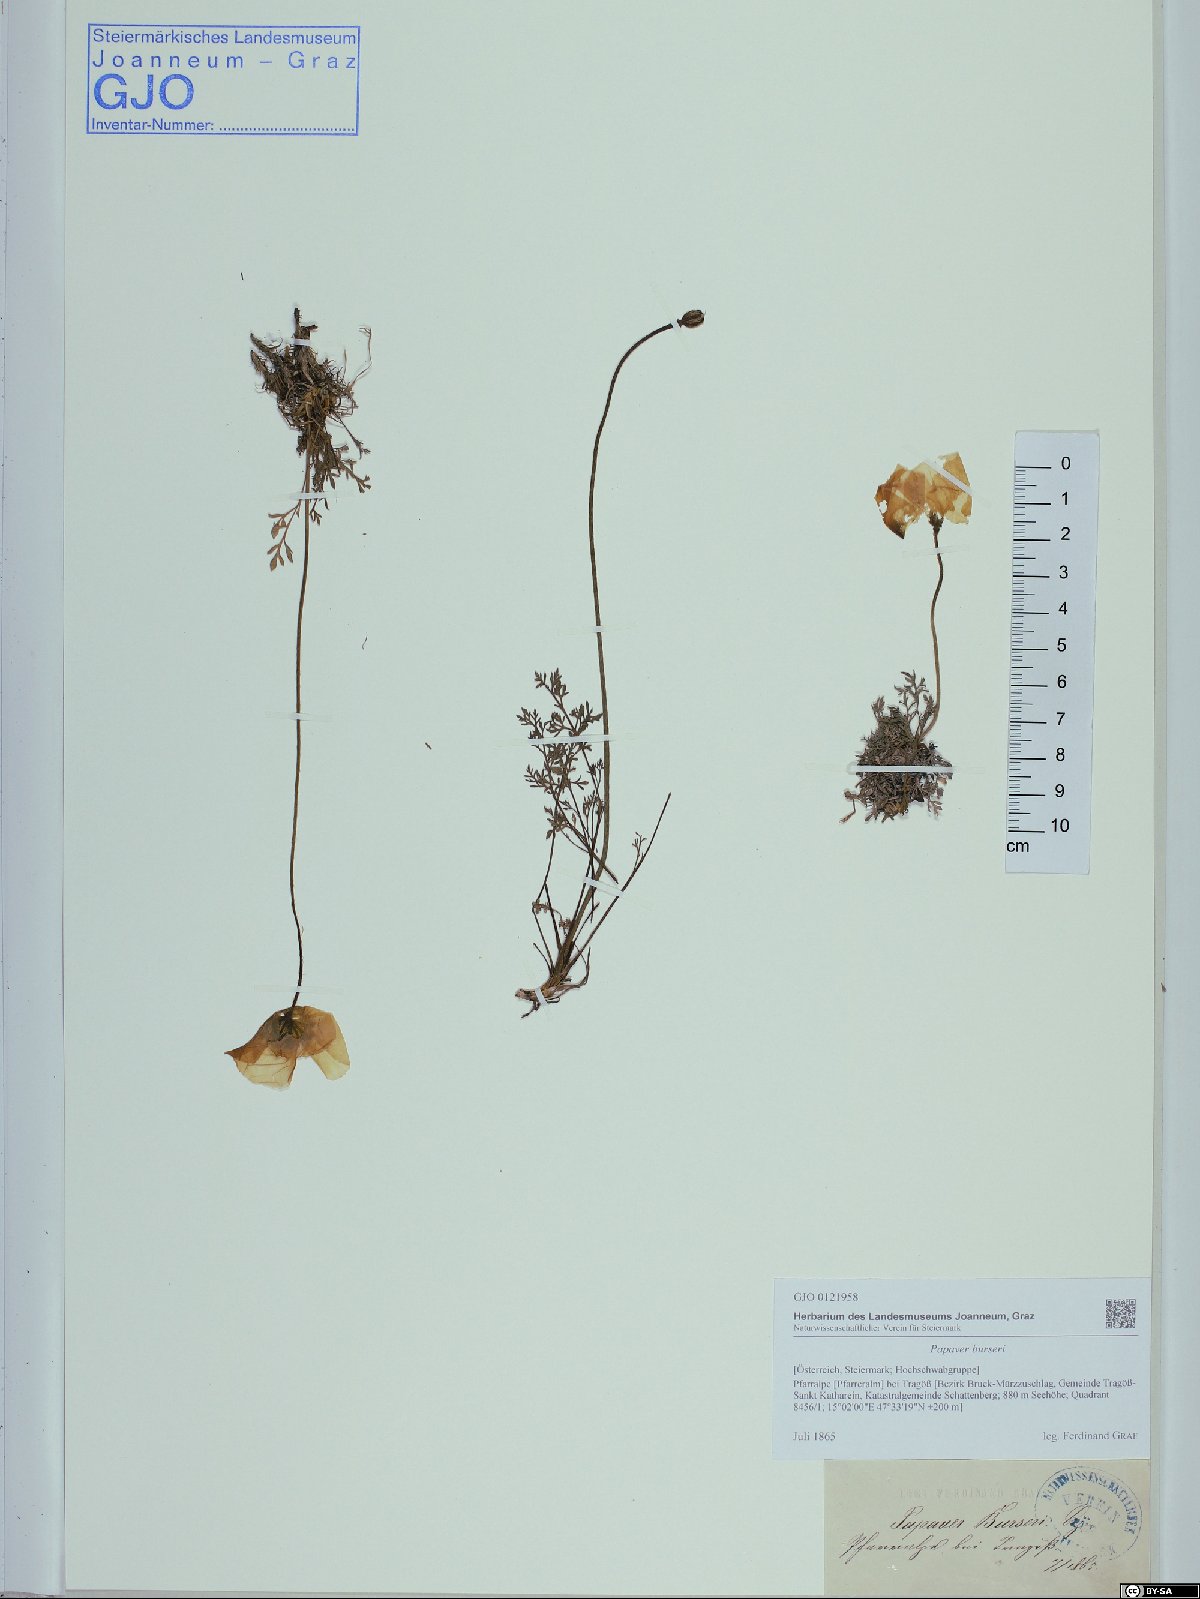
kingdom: Plantae
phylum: Tracheophyta
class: Magnoliopsida
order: Ranunculales
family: Papaveraceae
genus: Papaver
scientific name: Papaver alpinum
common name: Austrian poppy
